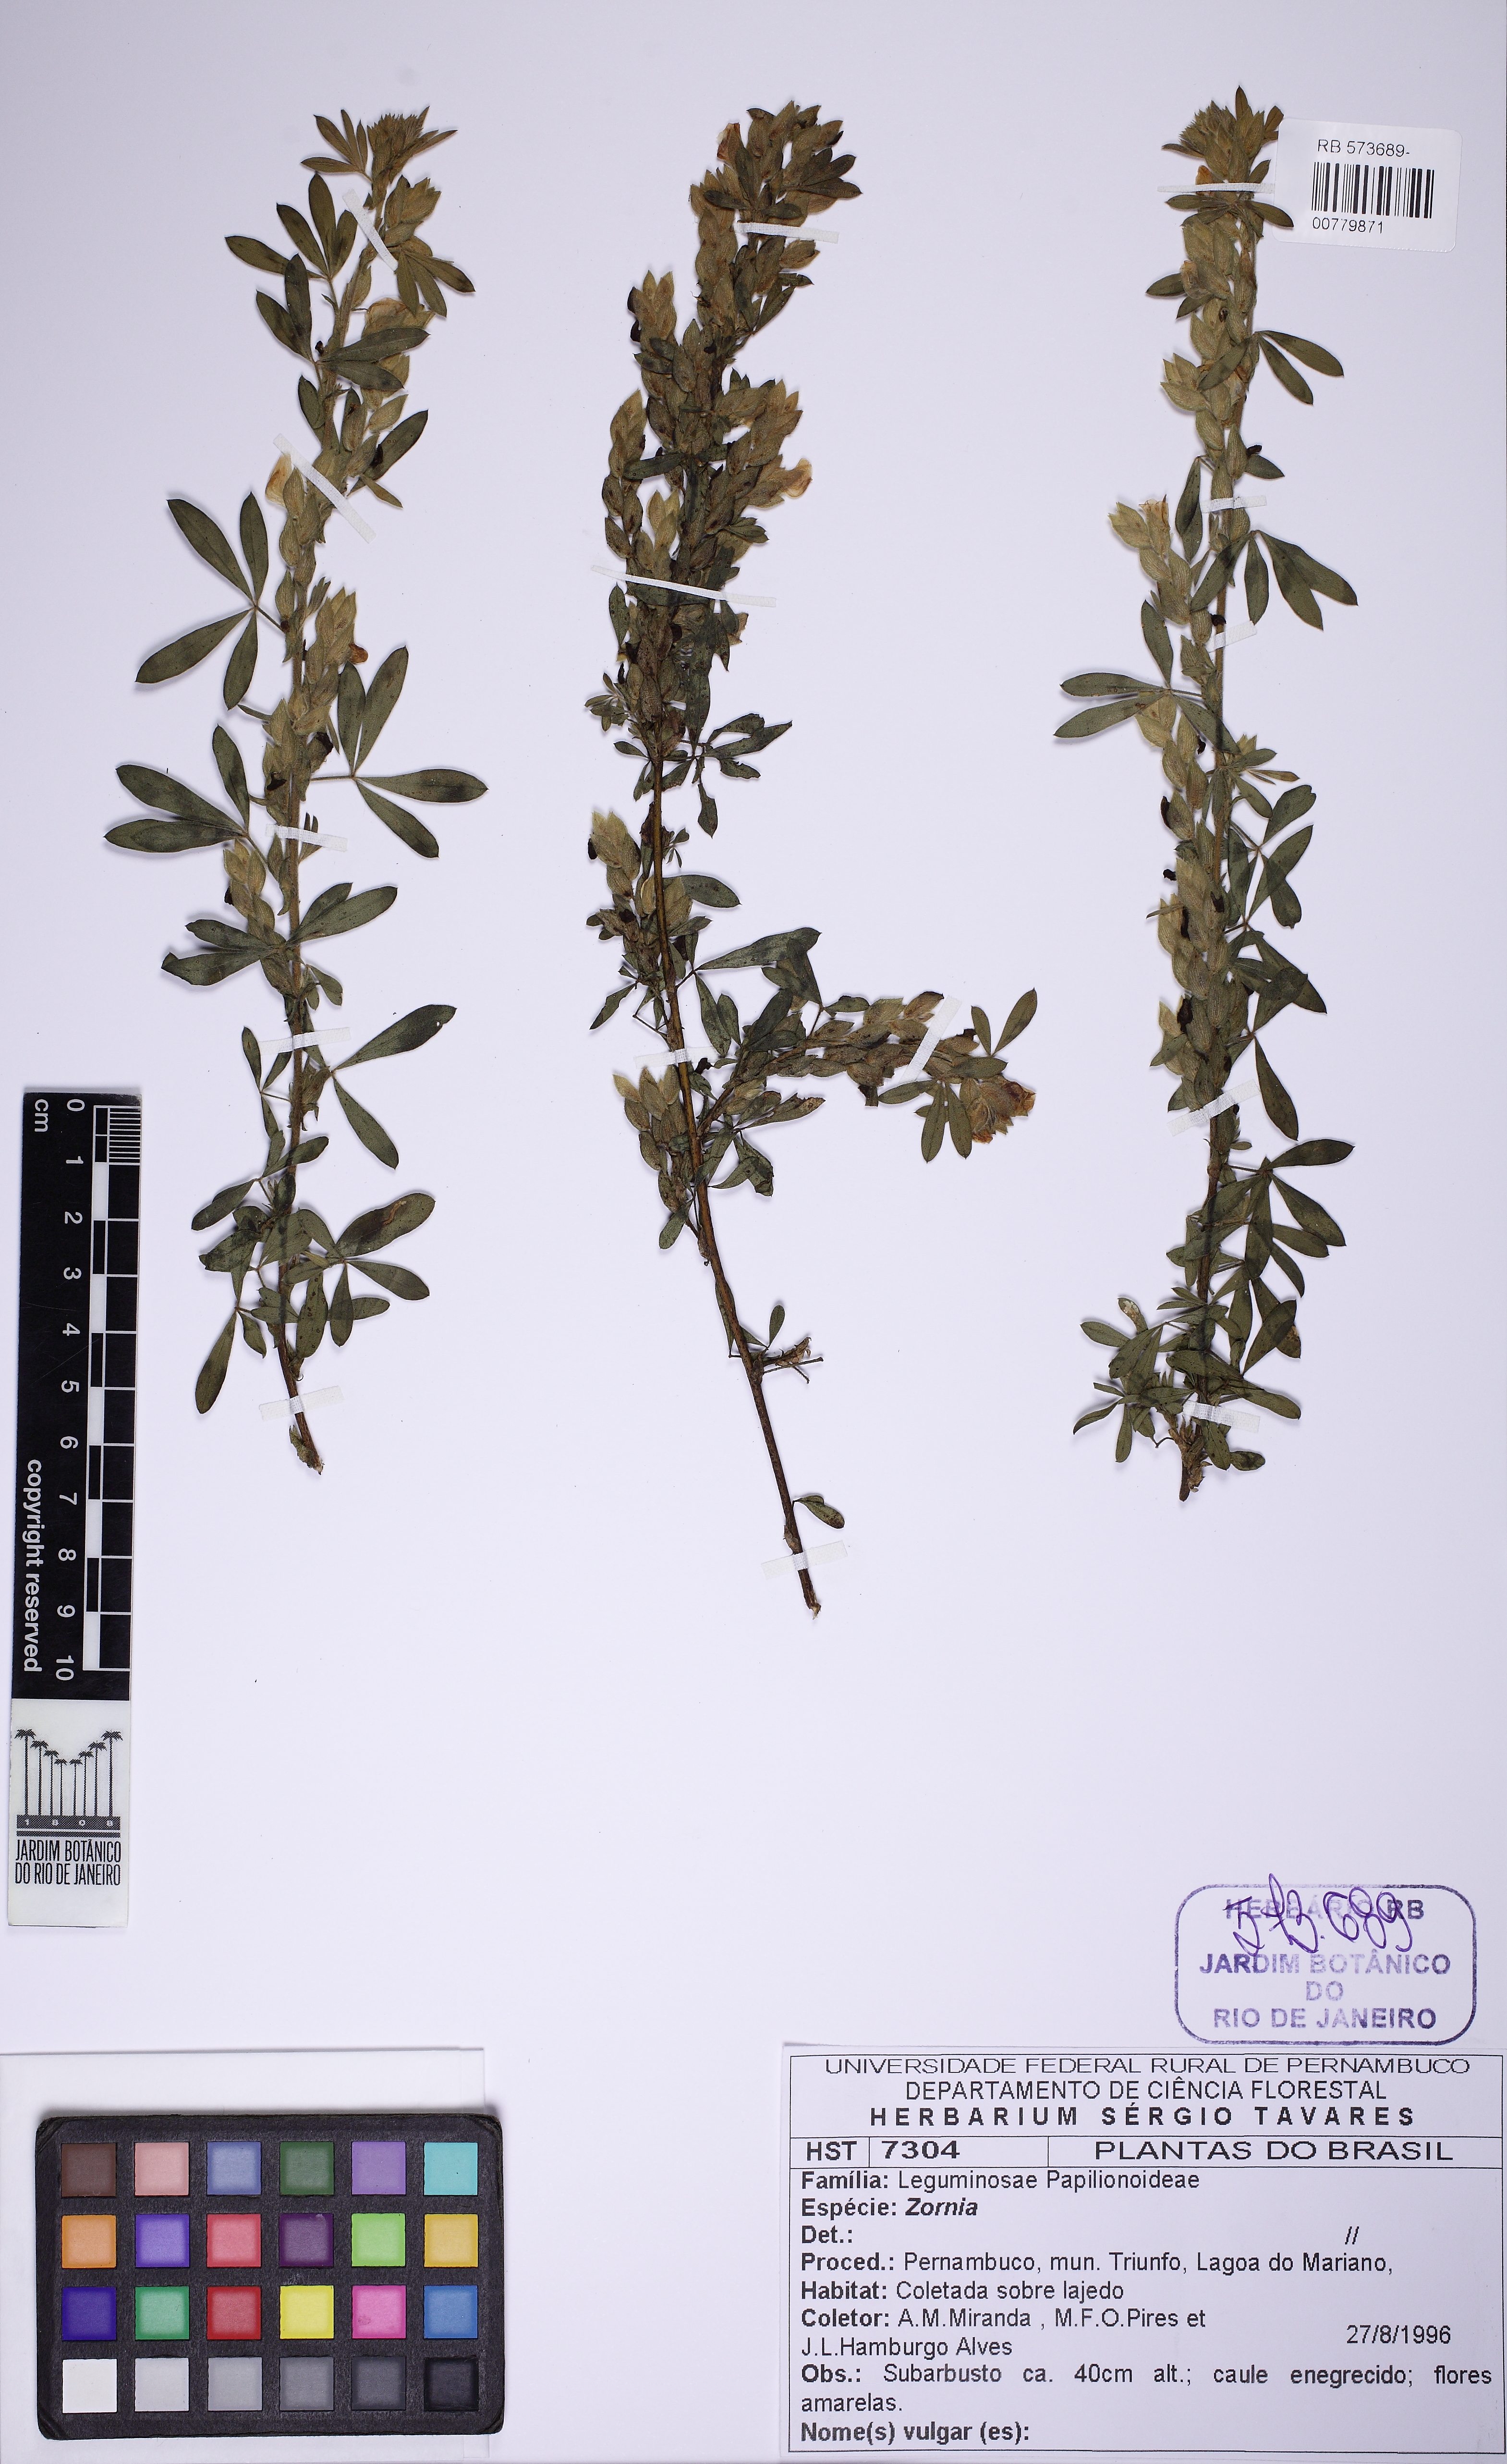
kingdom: Plantae
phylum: Tracheophyta
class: Magnoliopsida
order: Fabales
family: Fabaceae
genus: Zornia
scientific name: Zornia brasiliensis
